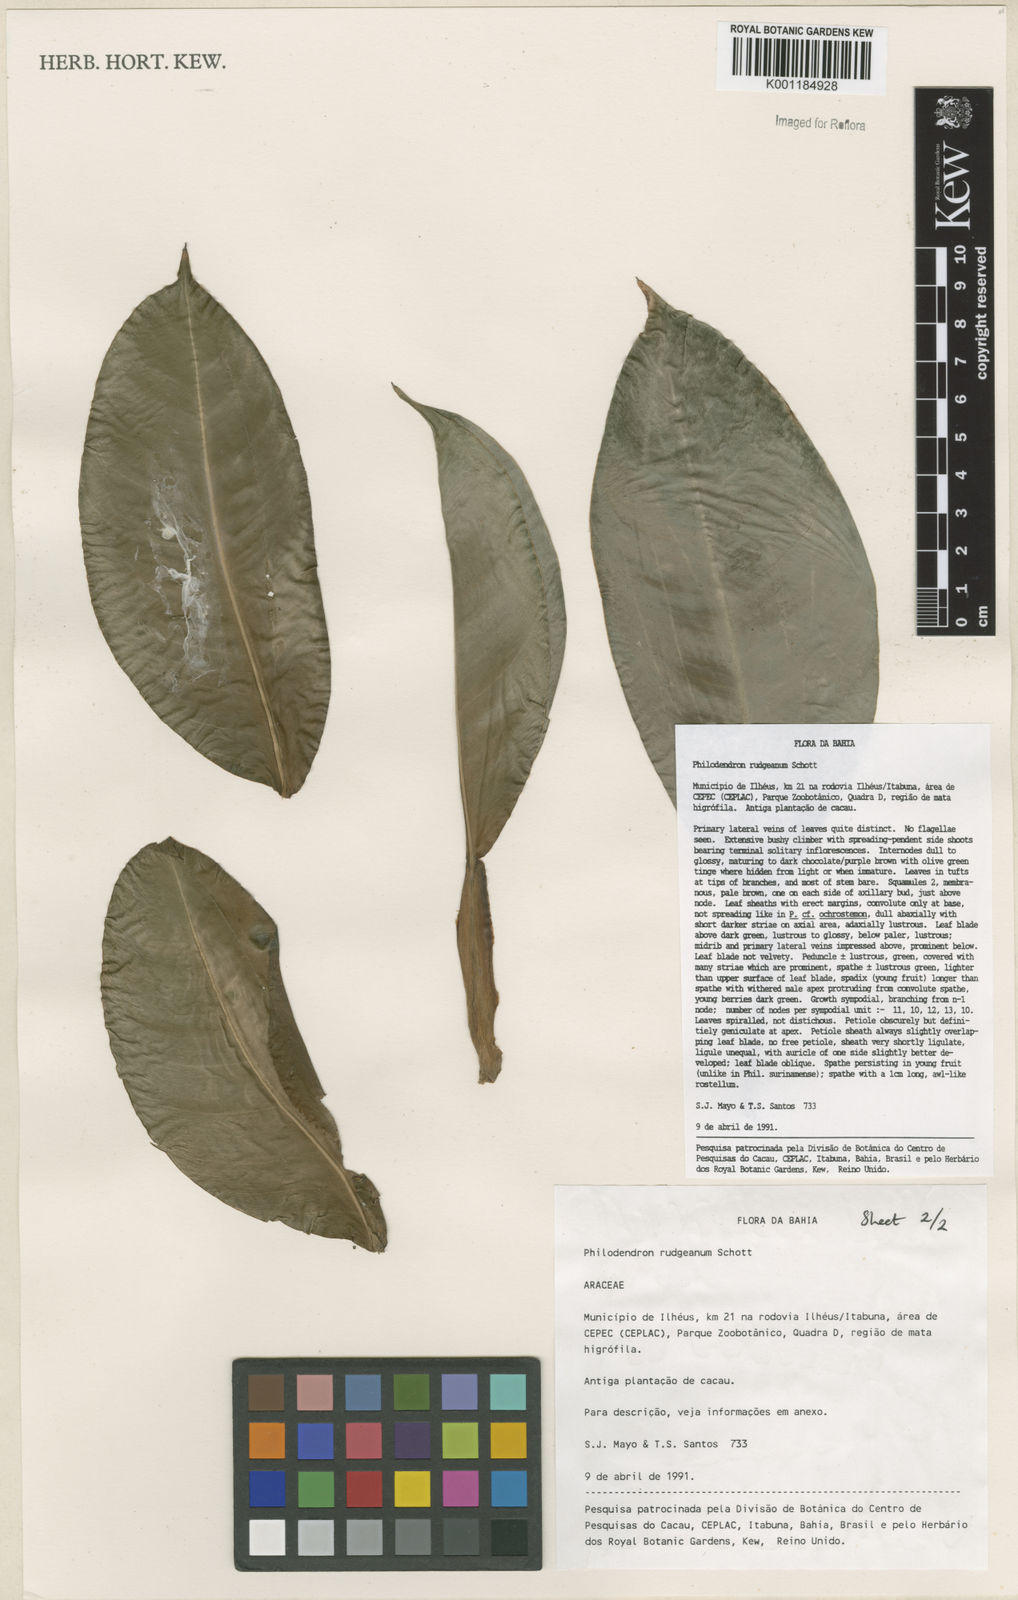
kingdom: Plantae
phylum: Tracheophyta
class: Liliopsida
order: Alismatales
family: Araceae
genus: Philodendron
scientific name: Philodendron rudgeanum
